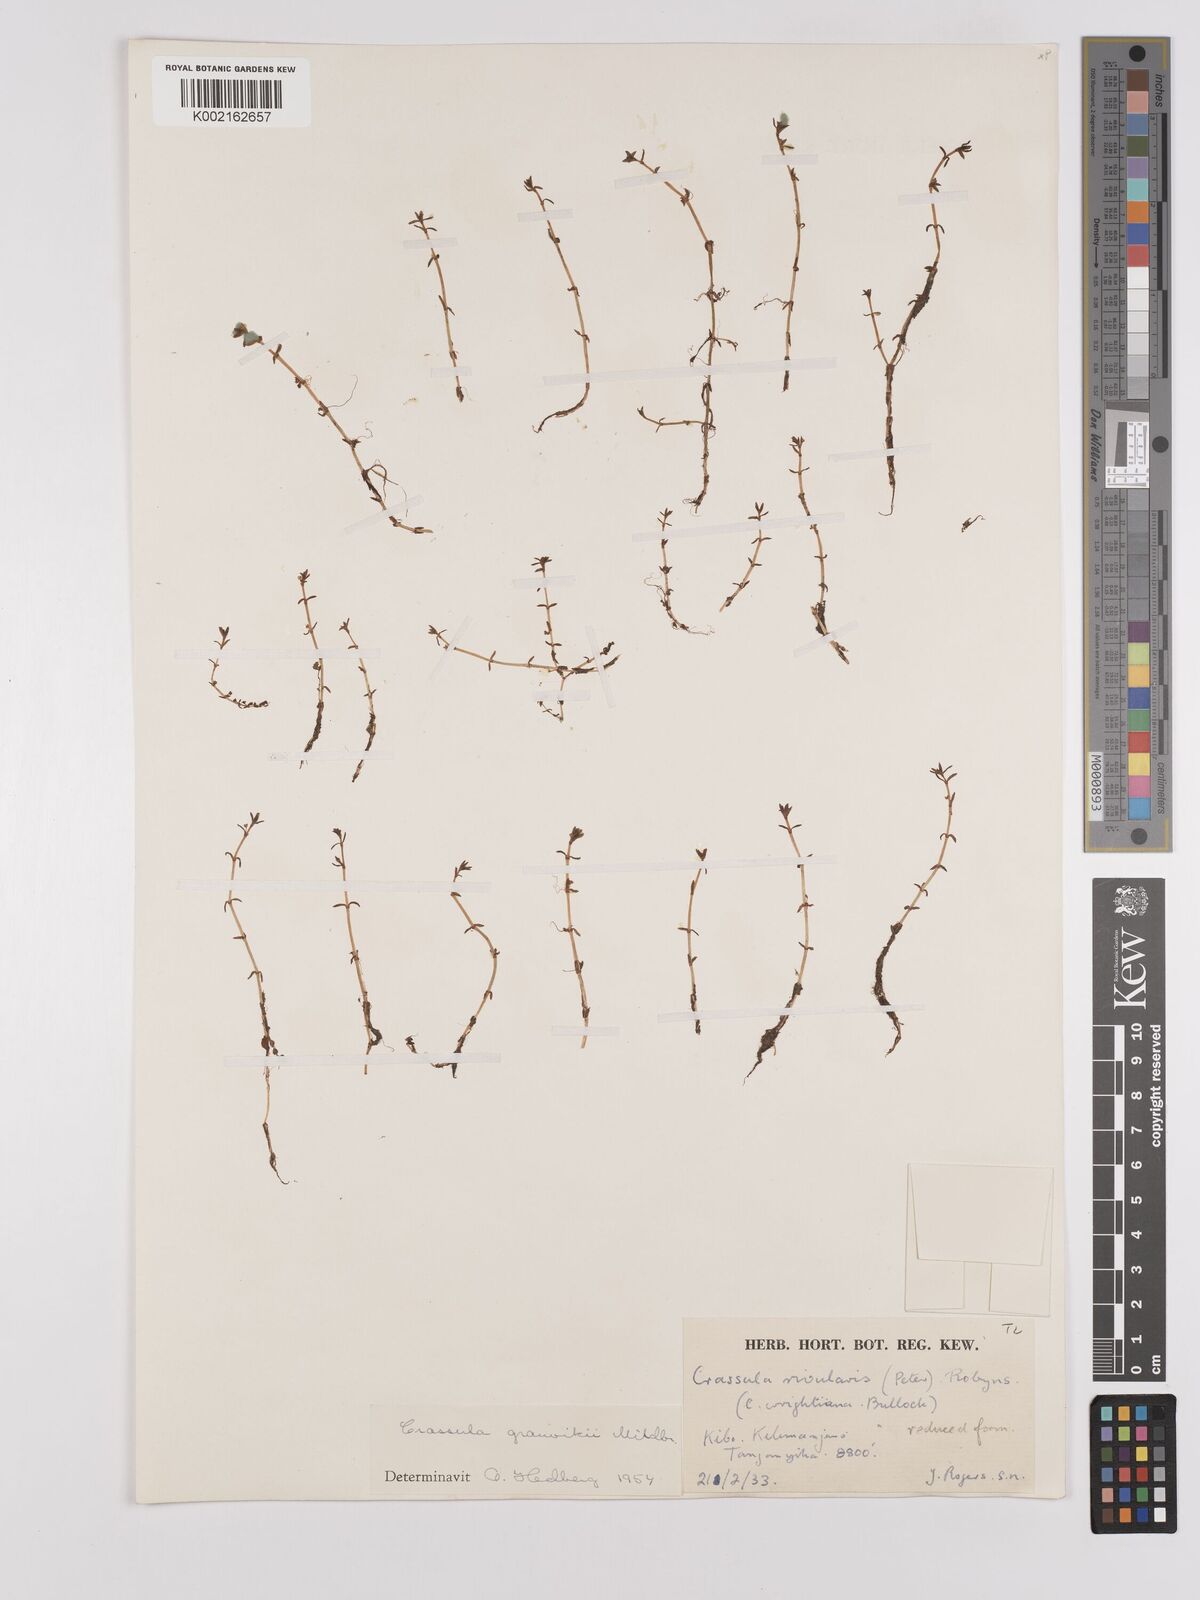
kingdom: Plantae
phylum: Tracheophyta
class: Magnoliopsida
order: Saxifragales
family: Crassulaceae
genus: Crassula
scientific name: Crassula granvikii
